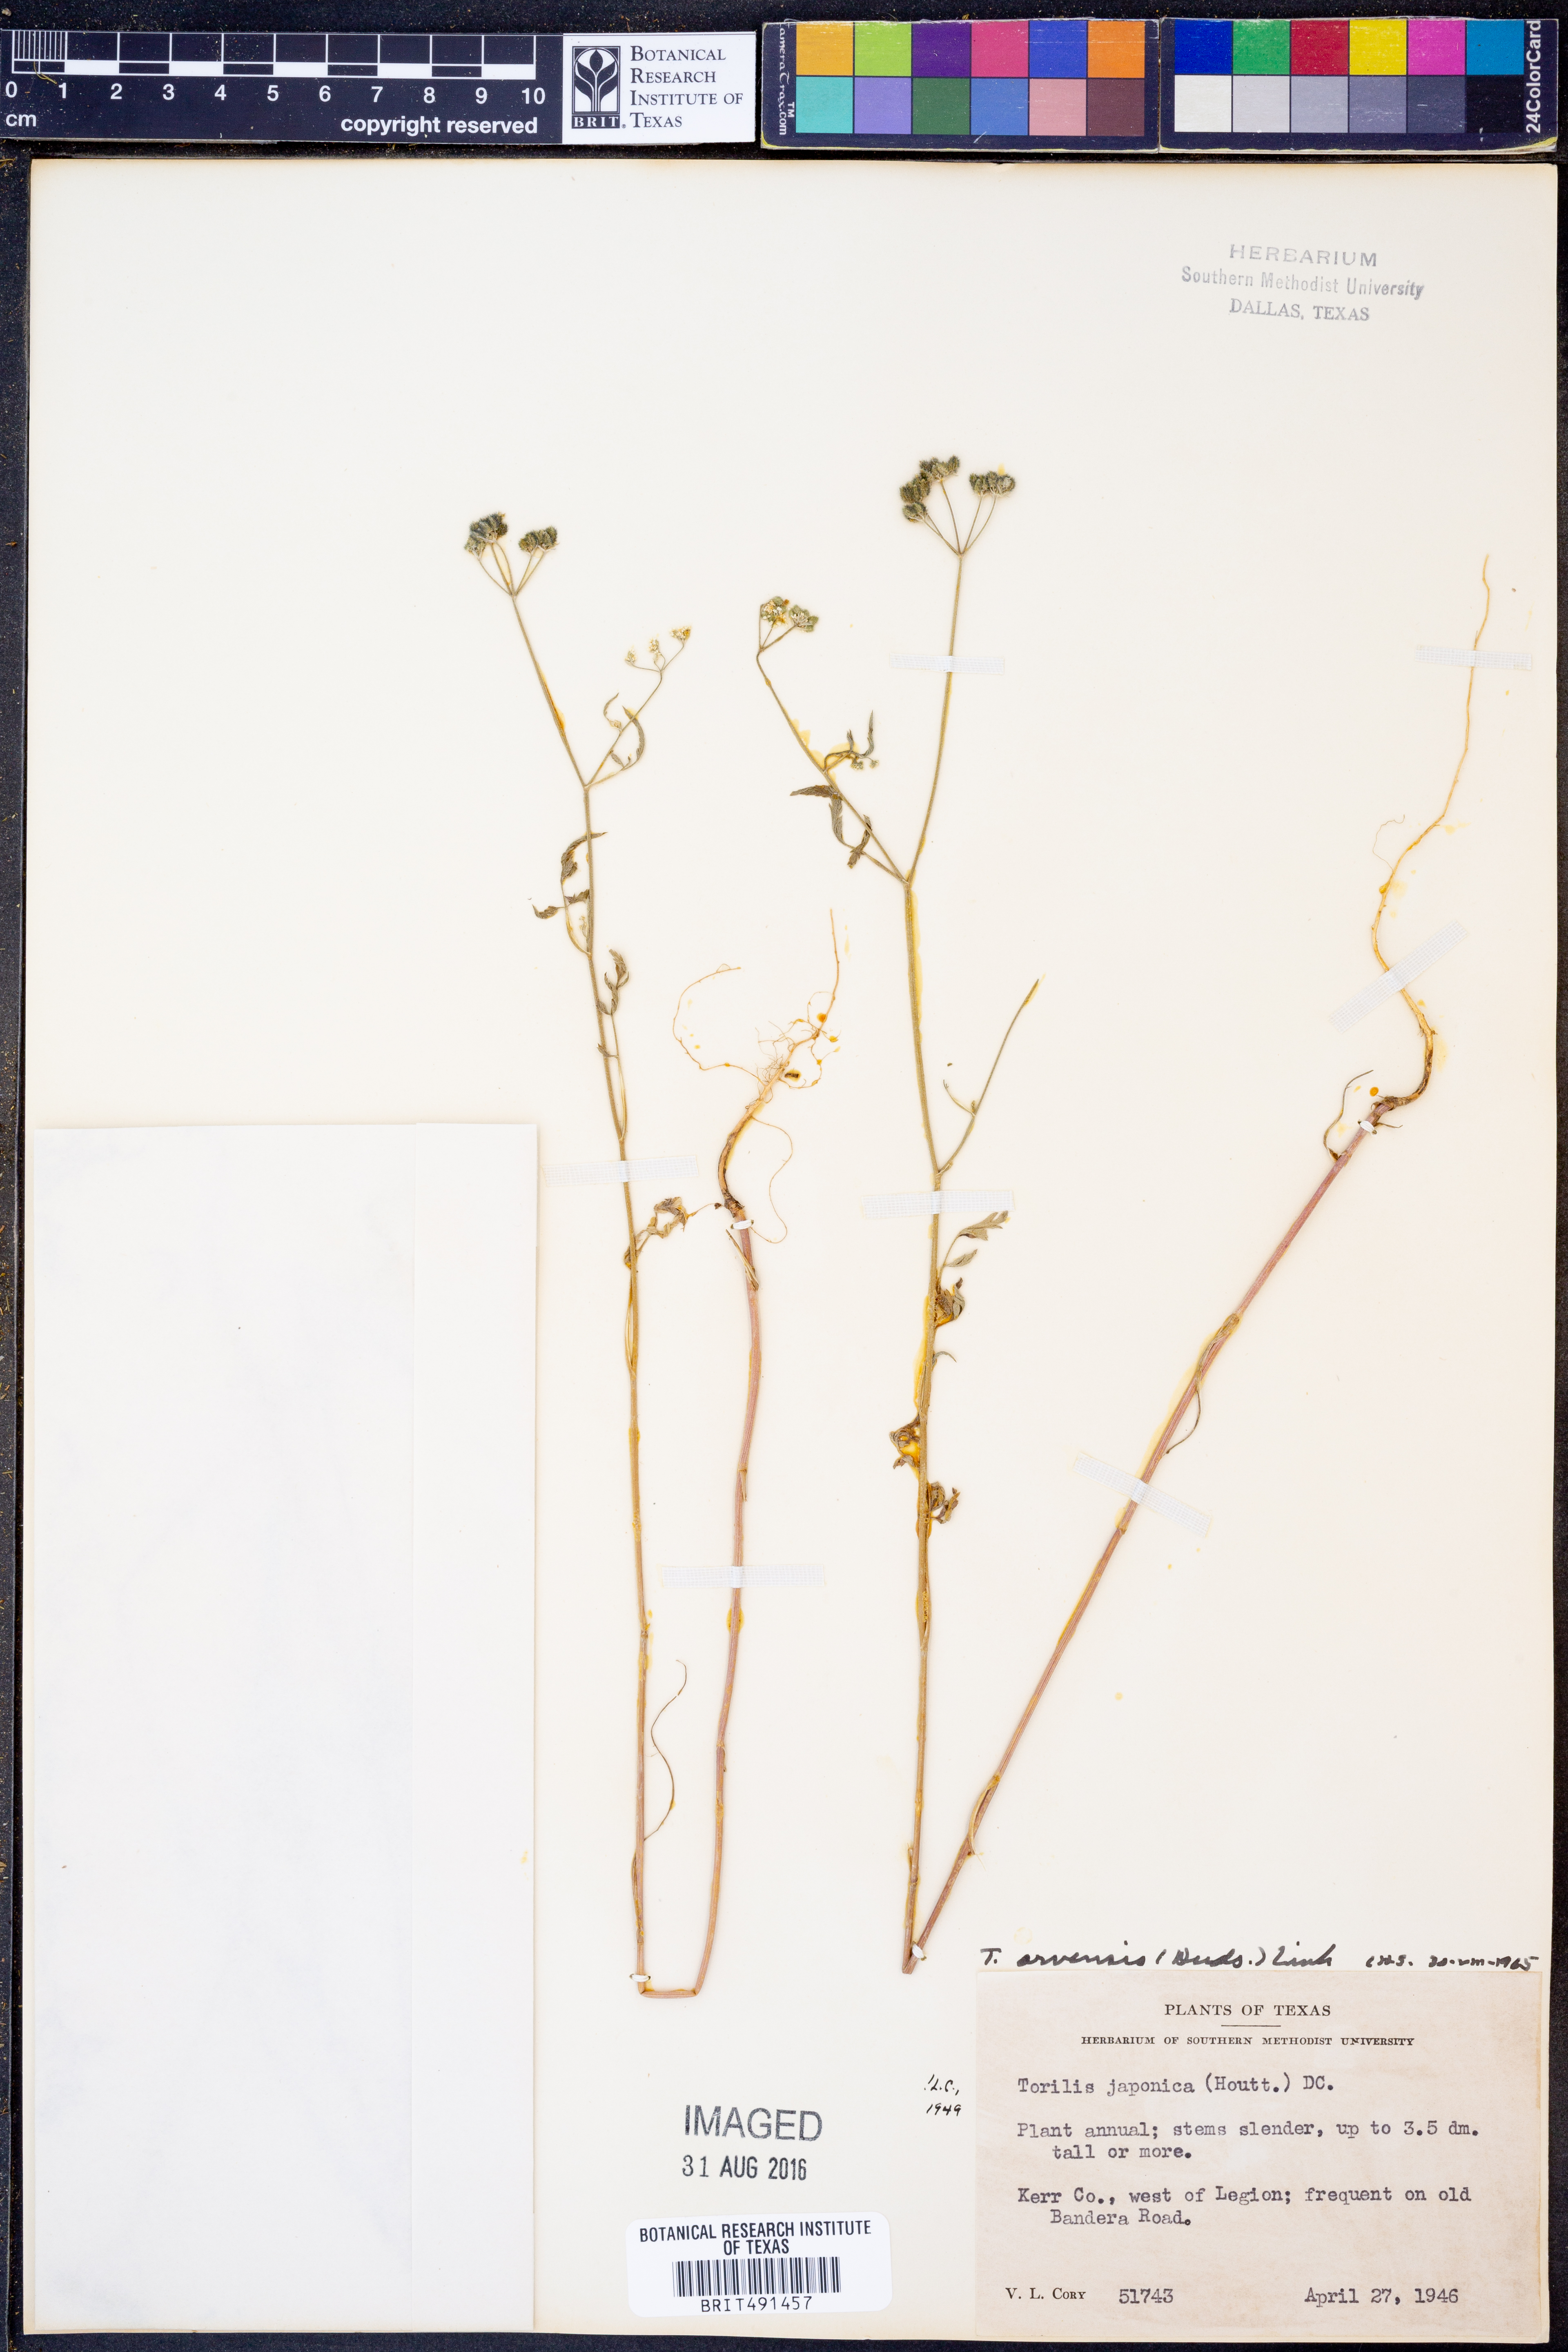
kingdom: Plantae
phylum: Tracheophyta
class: Magnoliopsida
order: Apiales
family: Apiaceae
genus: Torilis
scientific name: Torilis arvensis
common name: Spreading hedge-parsley
